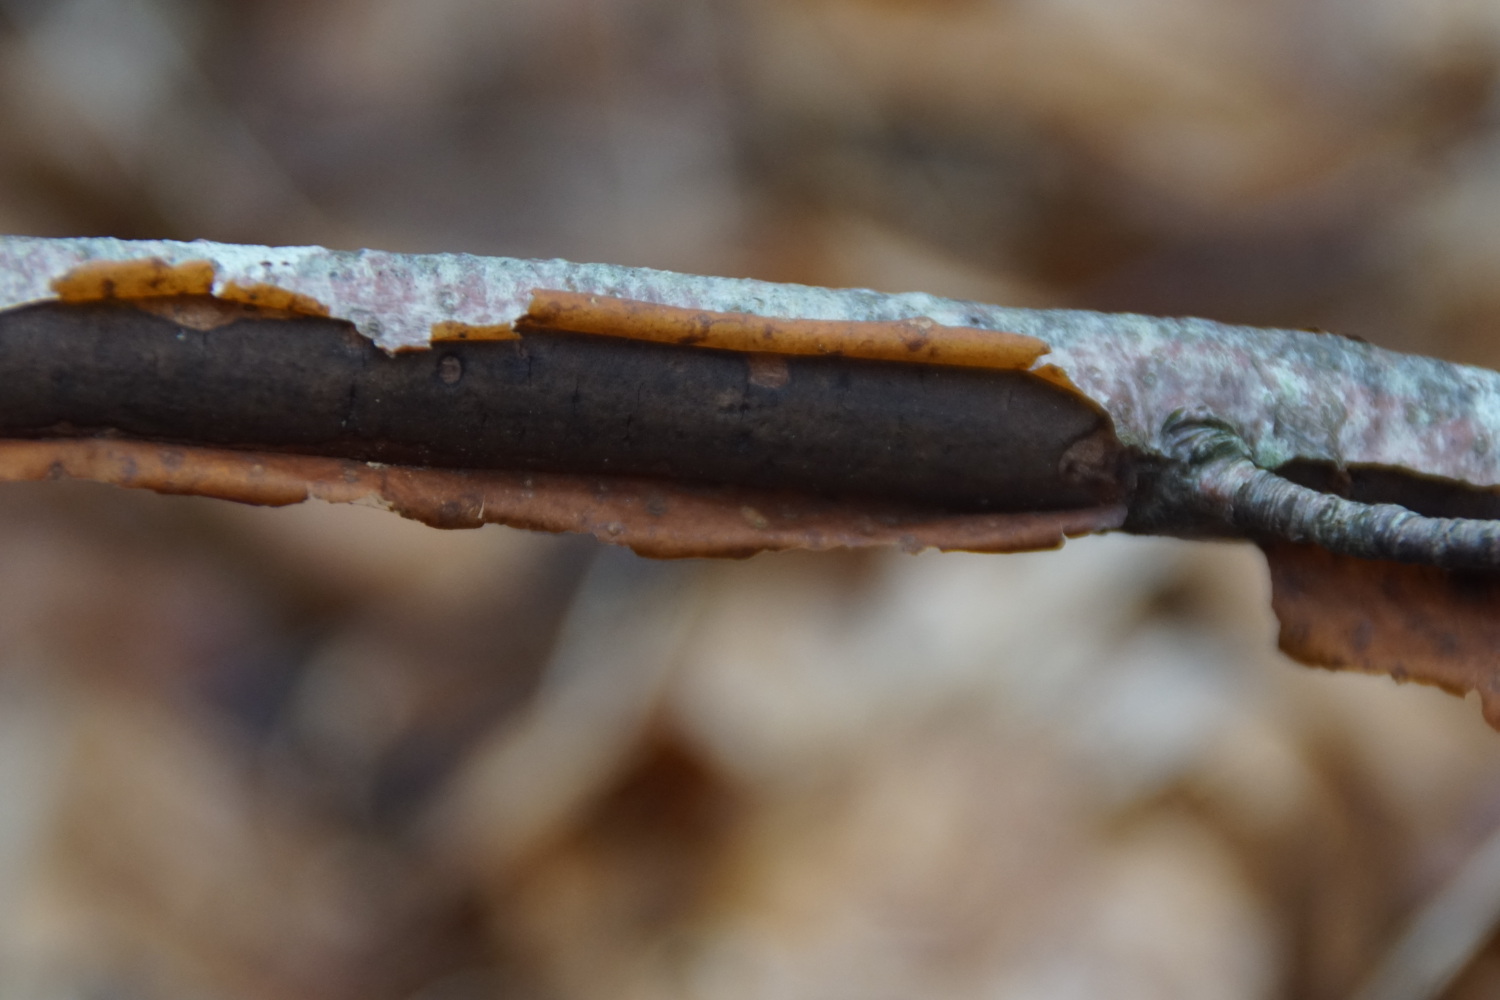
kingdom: Fungi
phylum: Ascomycota
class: Sordariomycetes
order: Xylariales
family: Diatrypaceae
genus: Diatrype
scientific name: Diatrype decorticata
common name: barksprænger-kulskorpe
